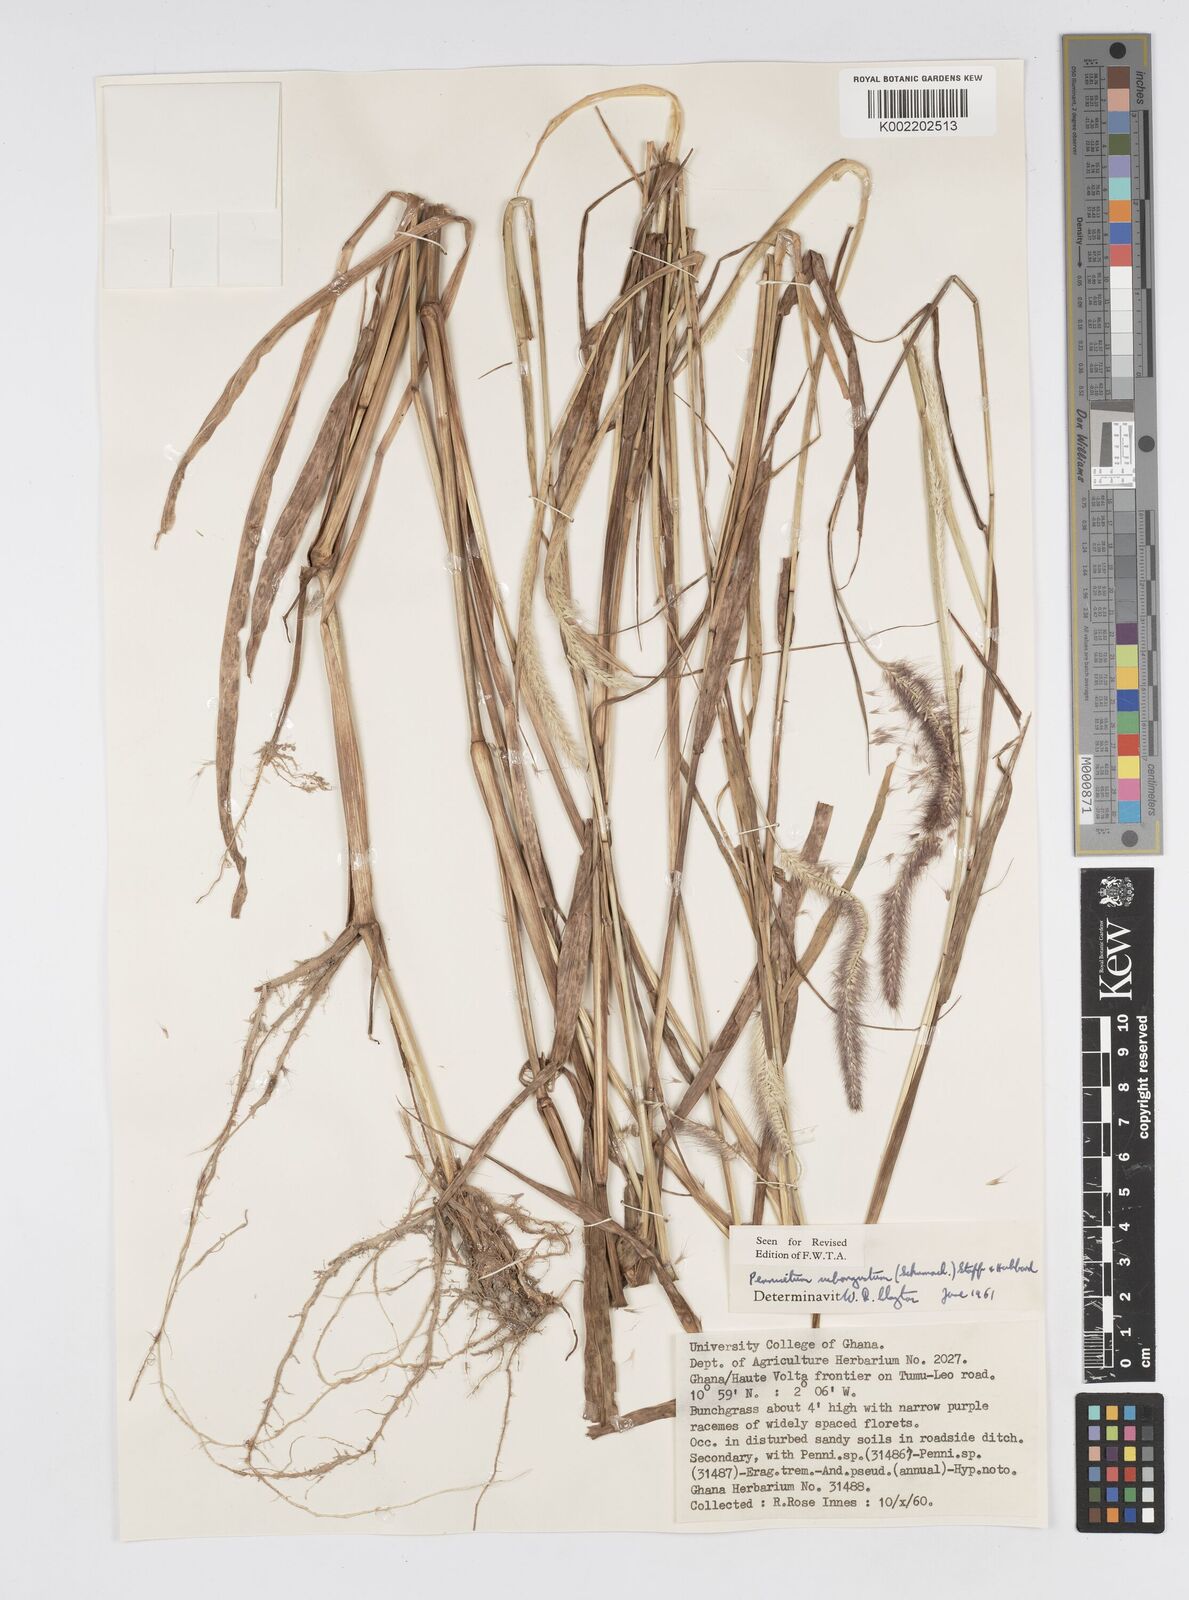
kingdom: Plantae
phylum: Tracheophyta
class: Liliopsida
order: Poales
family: Poaceae
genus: Setaria
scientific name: Setaria parviflora
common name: Knotroot bristle-grass
